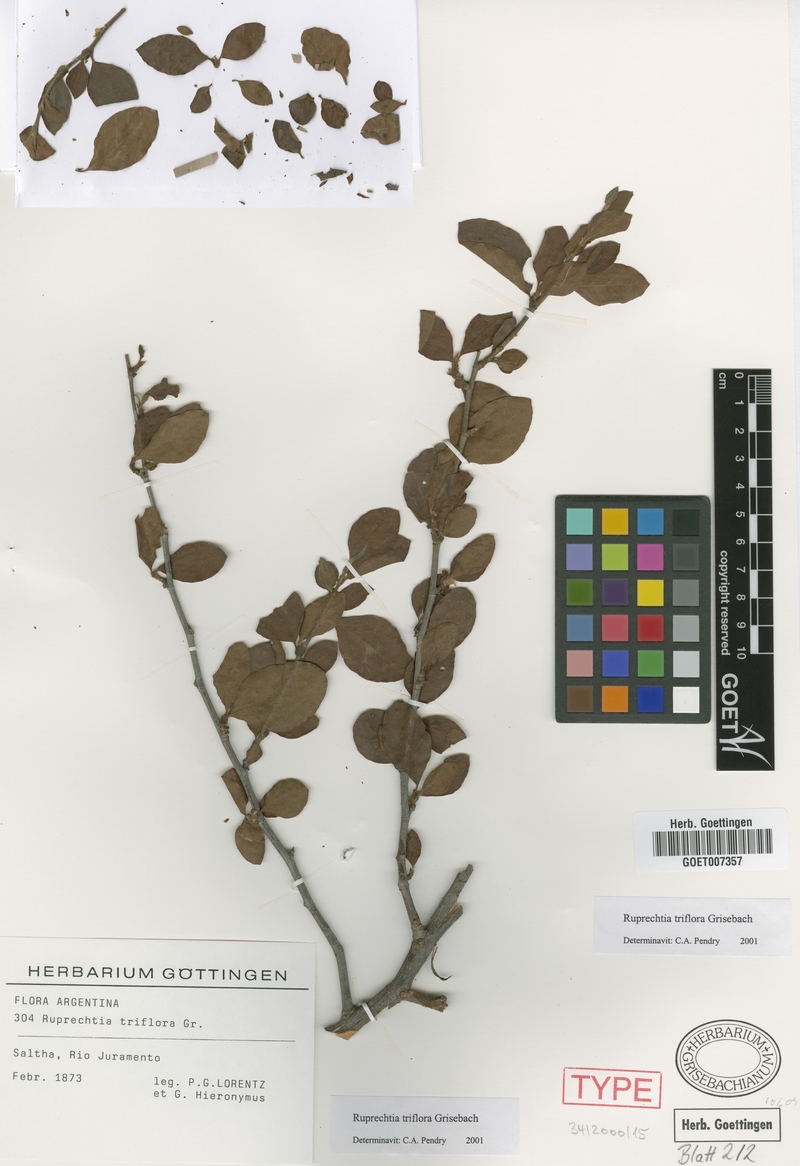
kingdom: Plantae
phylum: Tracheophyta
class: Magnoliopsida
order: Caryophyllales
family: Polygonaceae
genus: Salta
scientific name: Salta triflora
